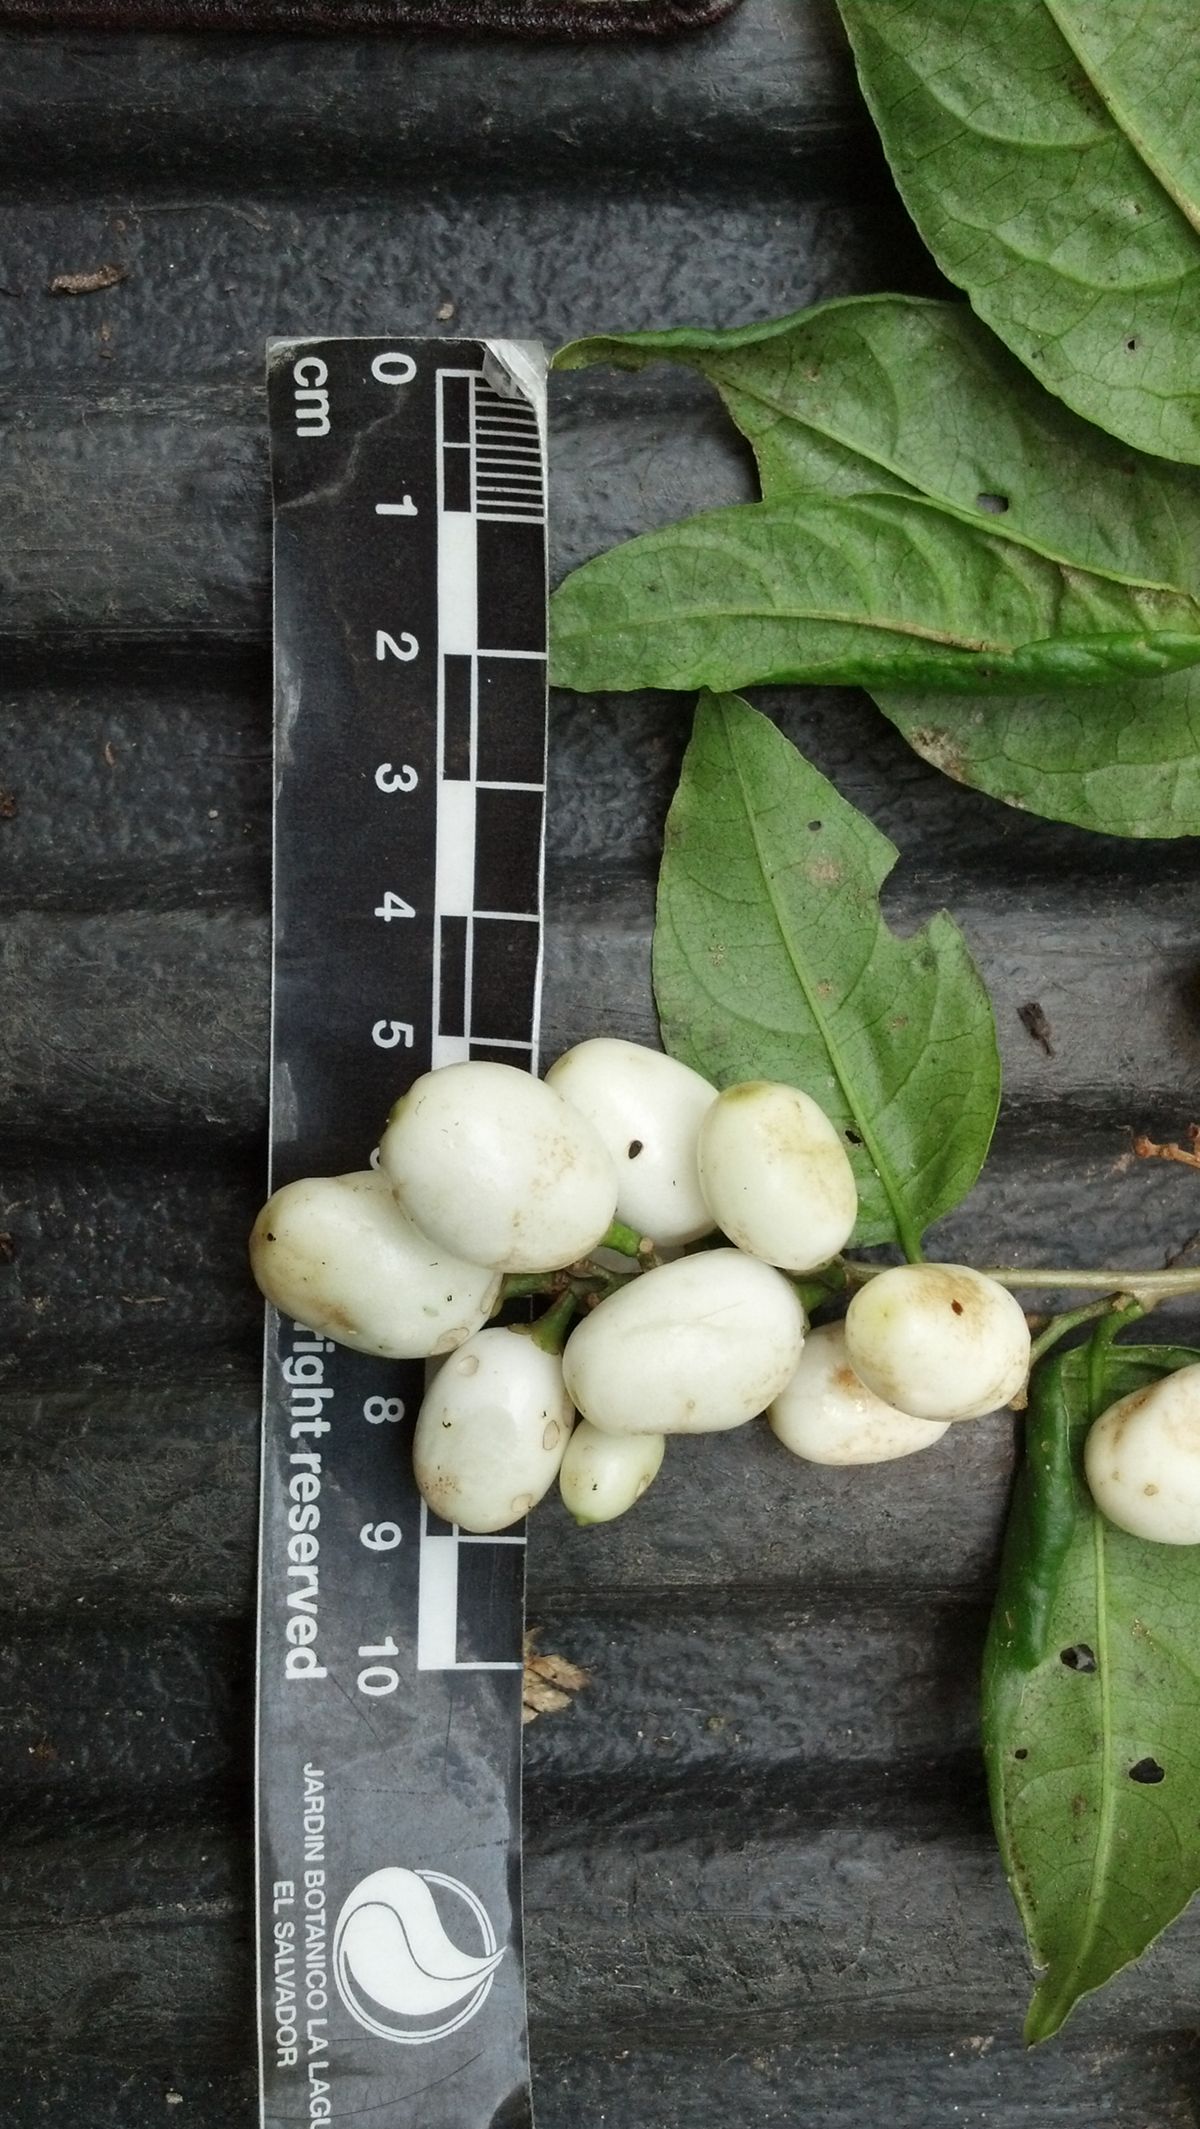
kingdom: Plantae
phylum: Tracheophyta
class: Magnoliopsida
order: Solanales
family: Solanaceae
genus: Cestrum
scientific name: Cestrum
